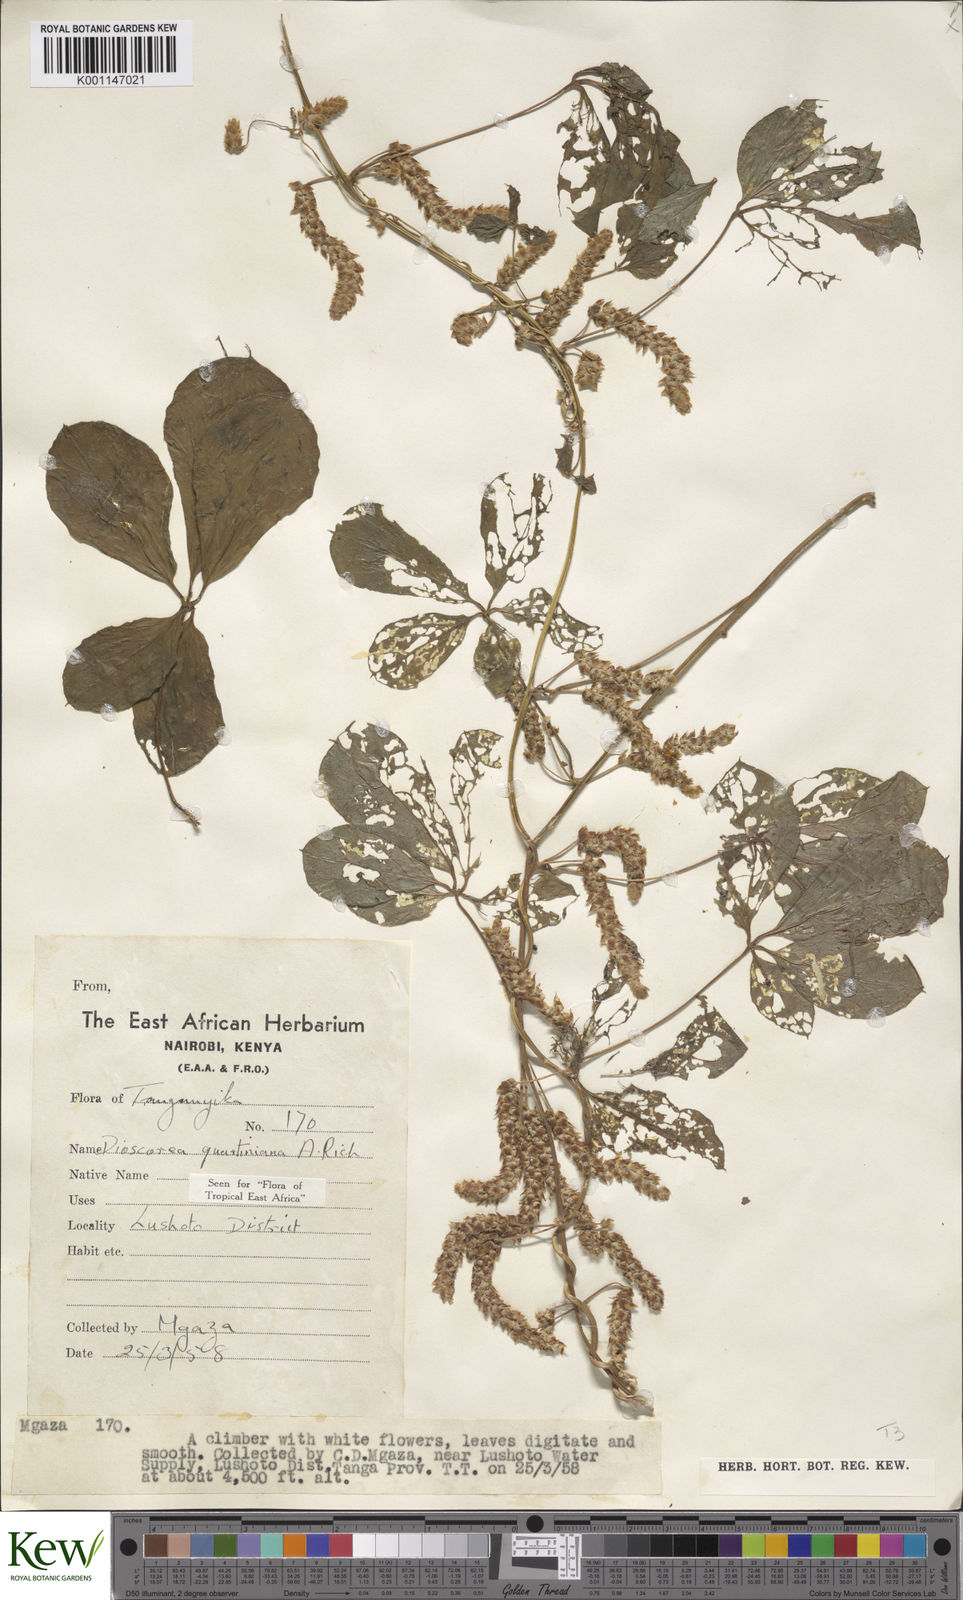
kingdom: Plantae
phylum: Tracheophyta
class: Liliopsida
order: Dioscoreales
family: Dioscoreaceae
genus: Dioscorea
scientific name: Dioscorea quartiniana
